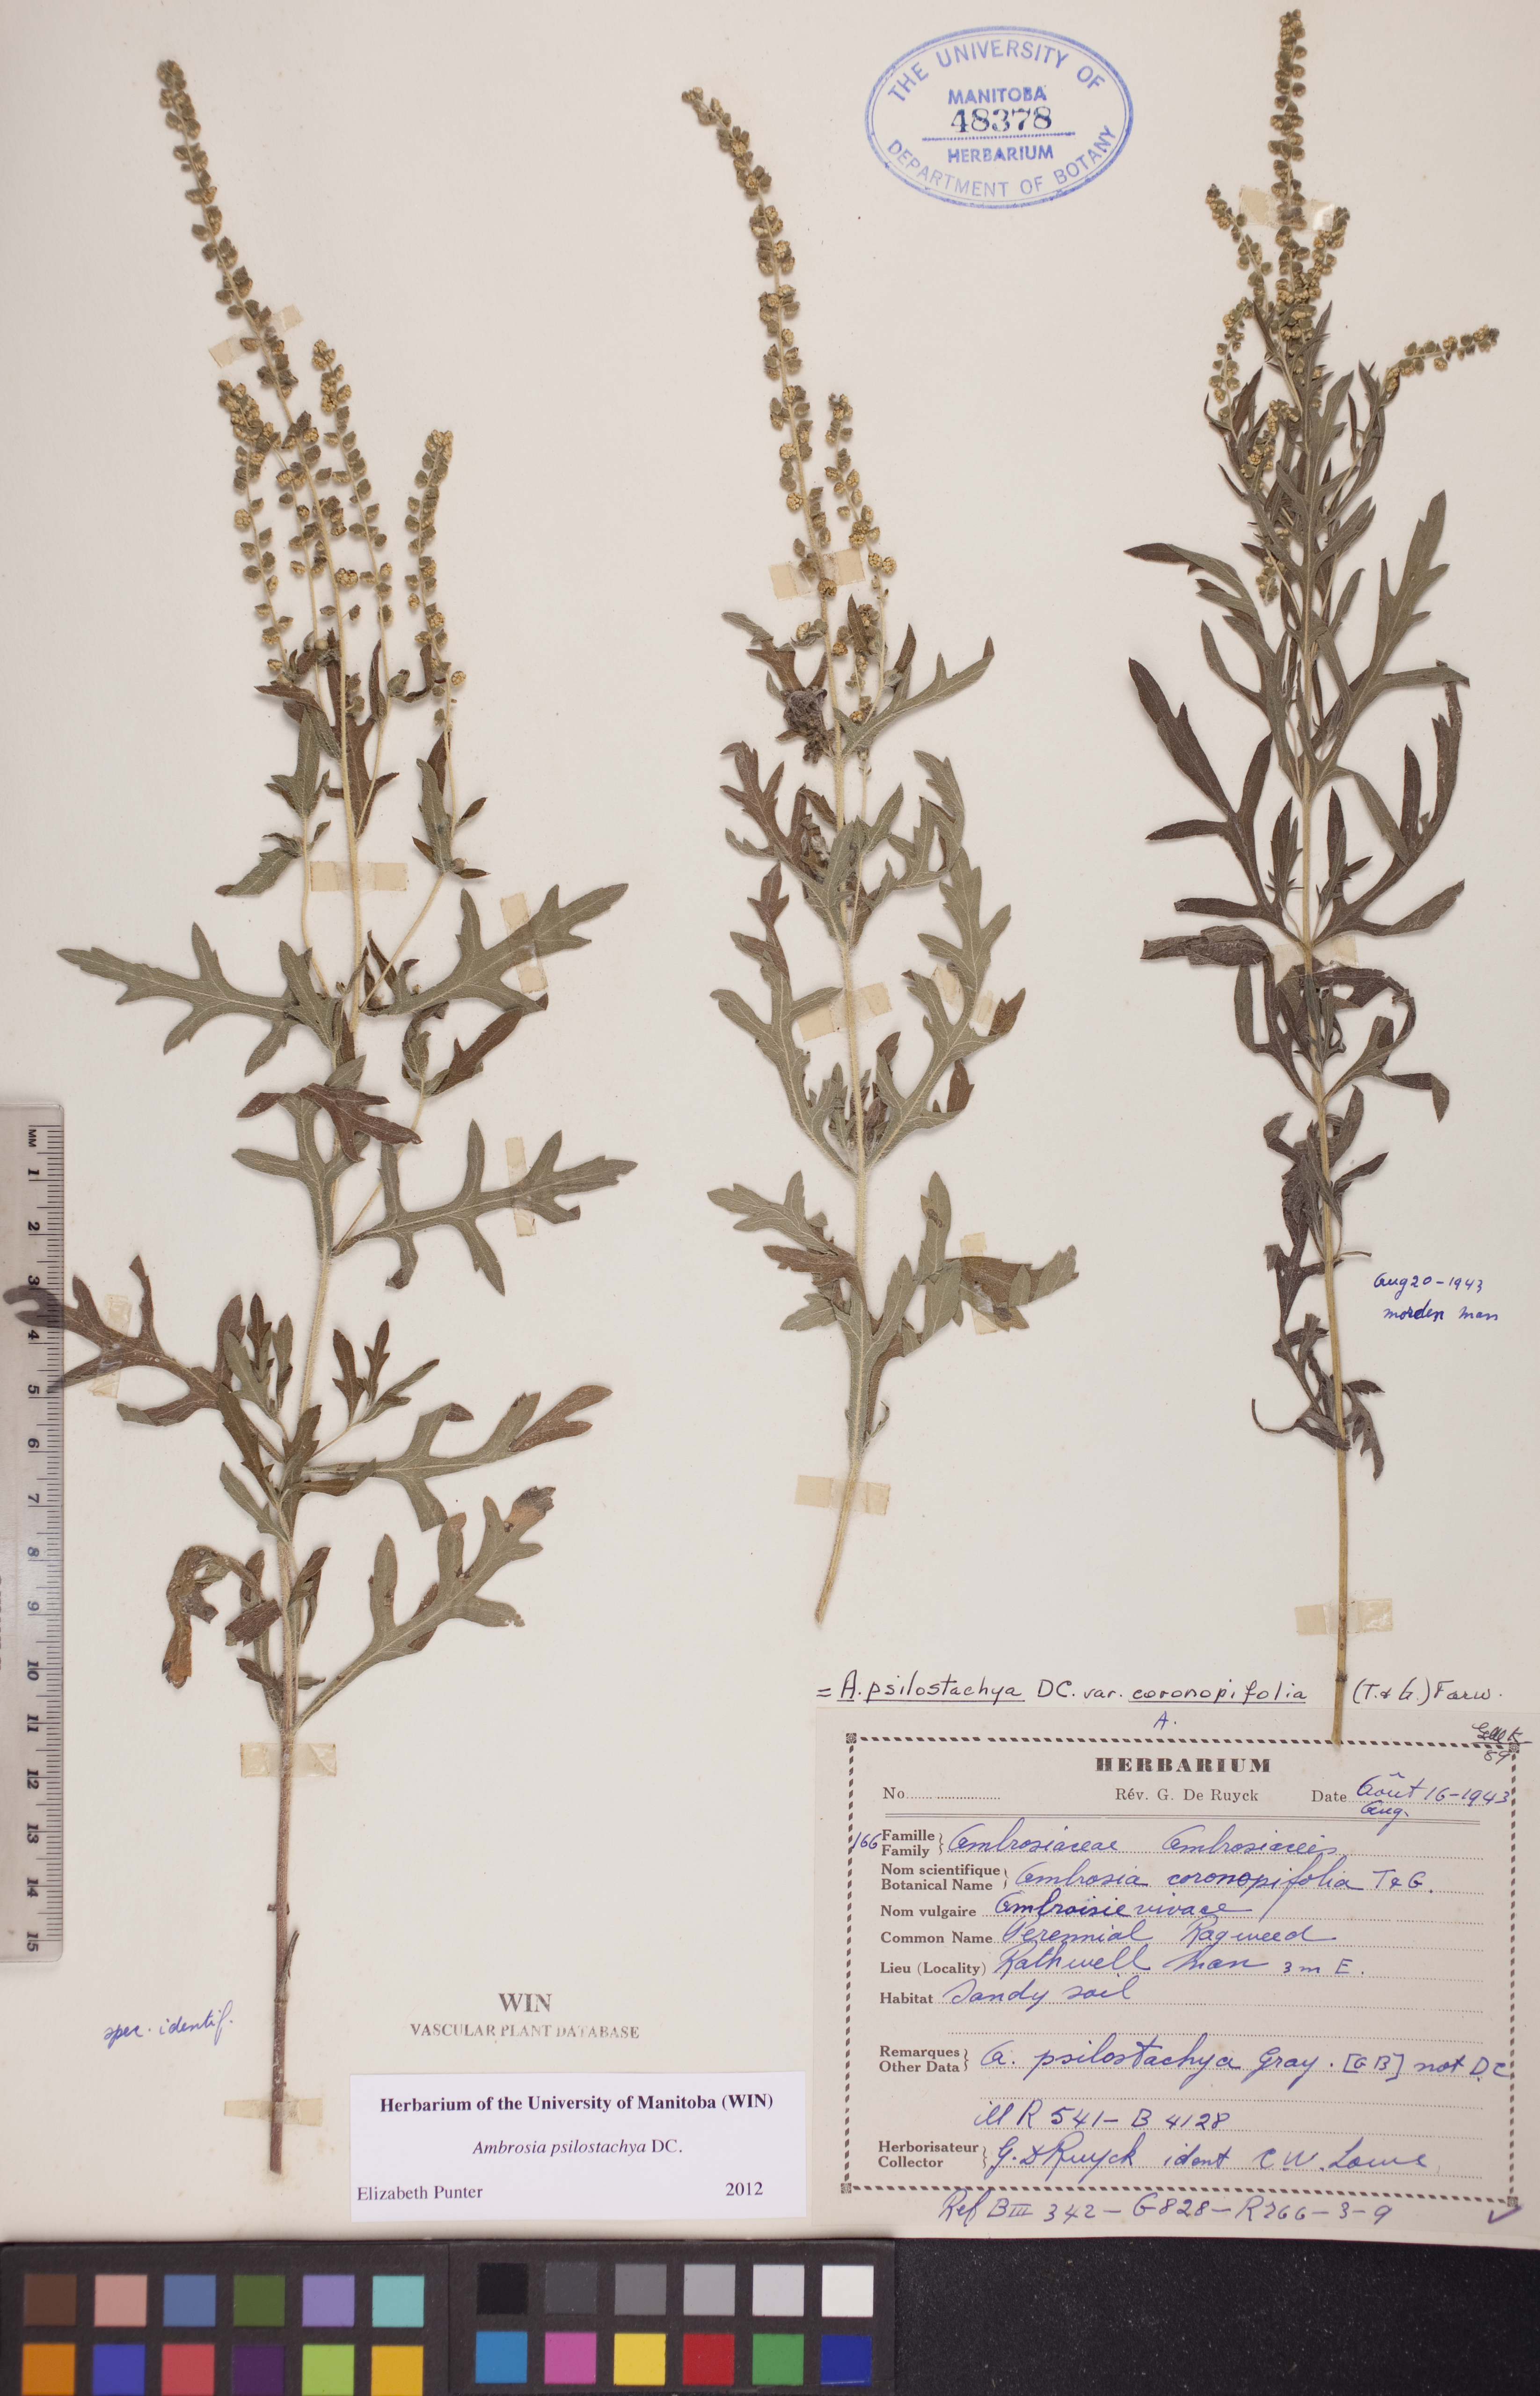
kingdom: Plantae
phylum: Tracheophyta
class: Magnoliopsida
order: Asterales
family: Asteraceae
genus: Ambrosia
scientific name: Ambrosia psilostachya
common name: Perennial ragweed
